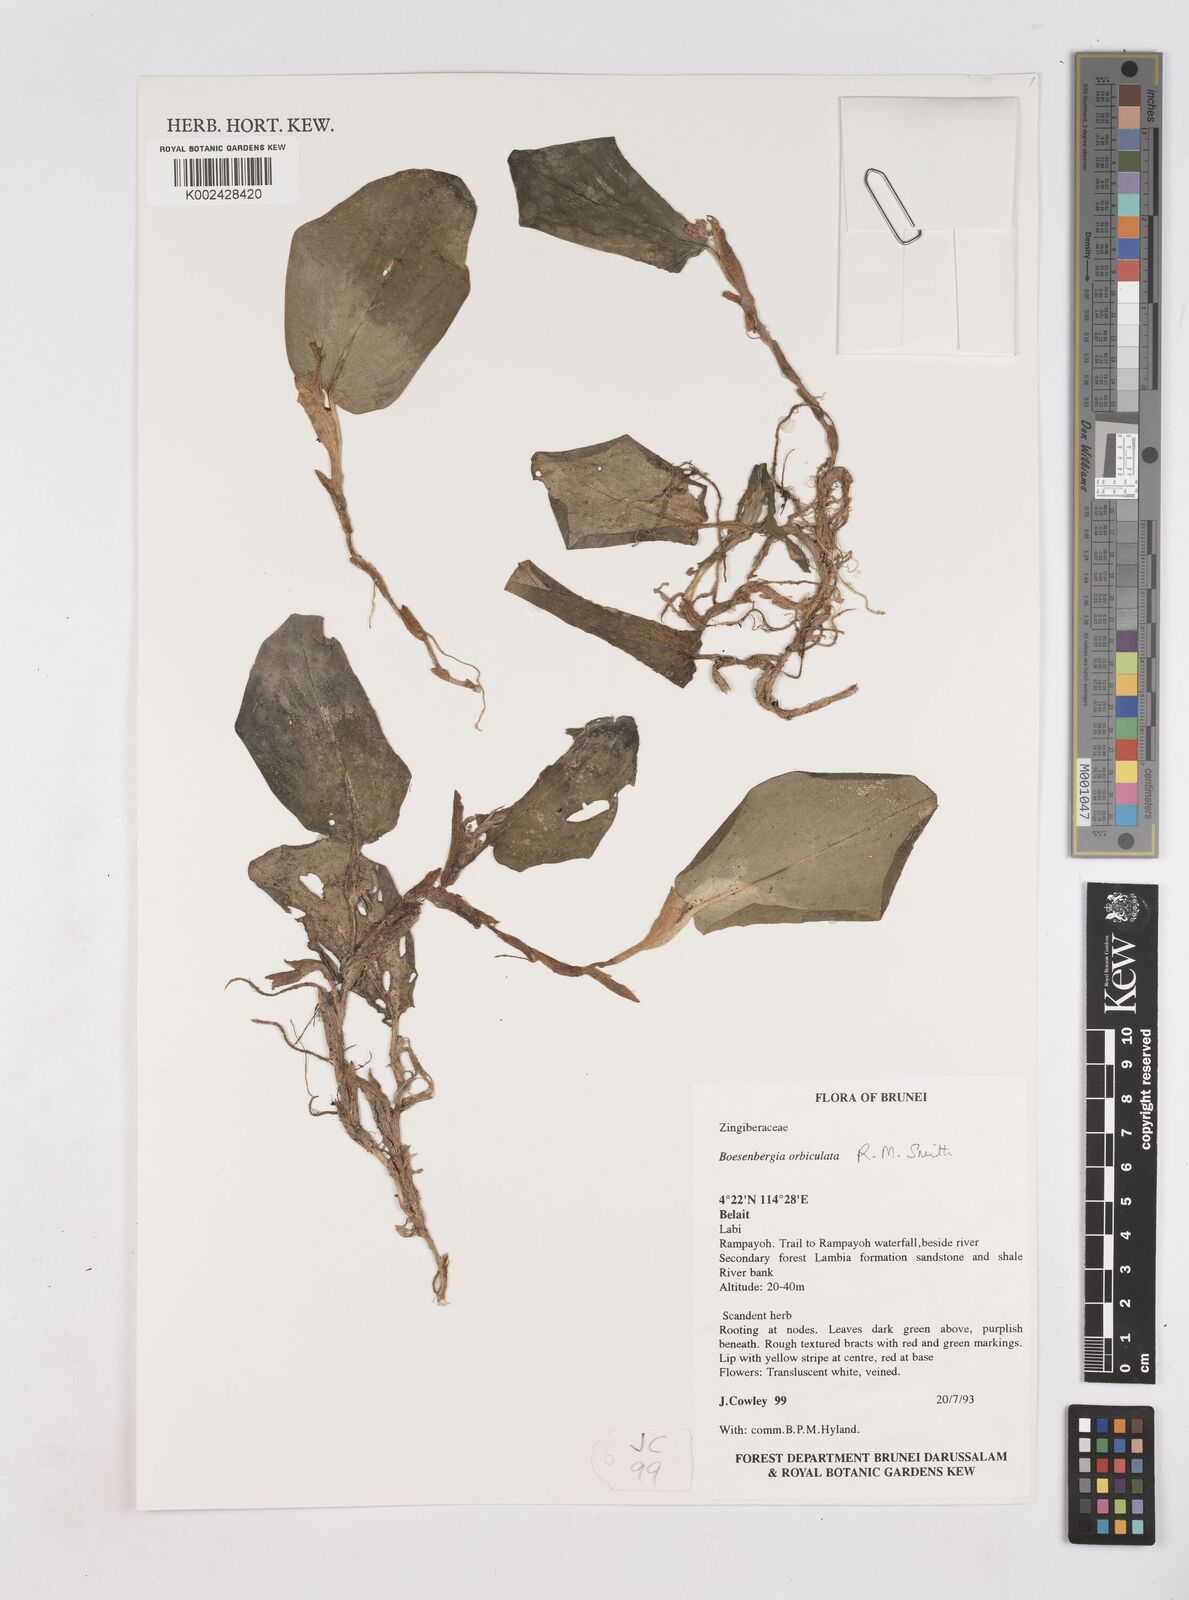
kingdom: Plantae
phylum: Tracheophyta
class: Liliopsida
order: Zingiberales
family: Zingiberaceae
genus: Boesenbergia
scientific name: Boesenbergia orbiculata
